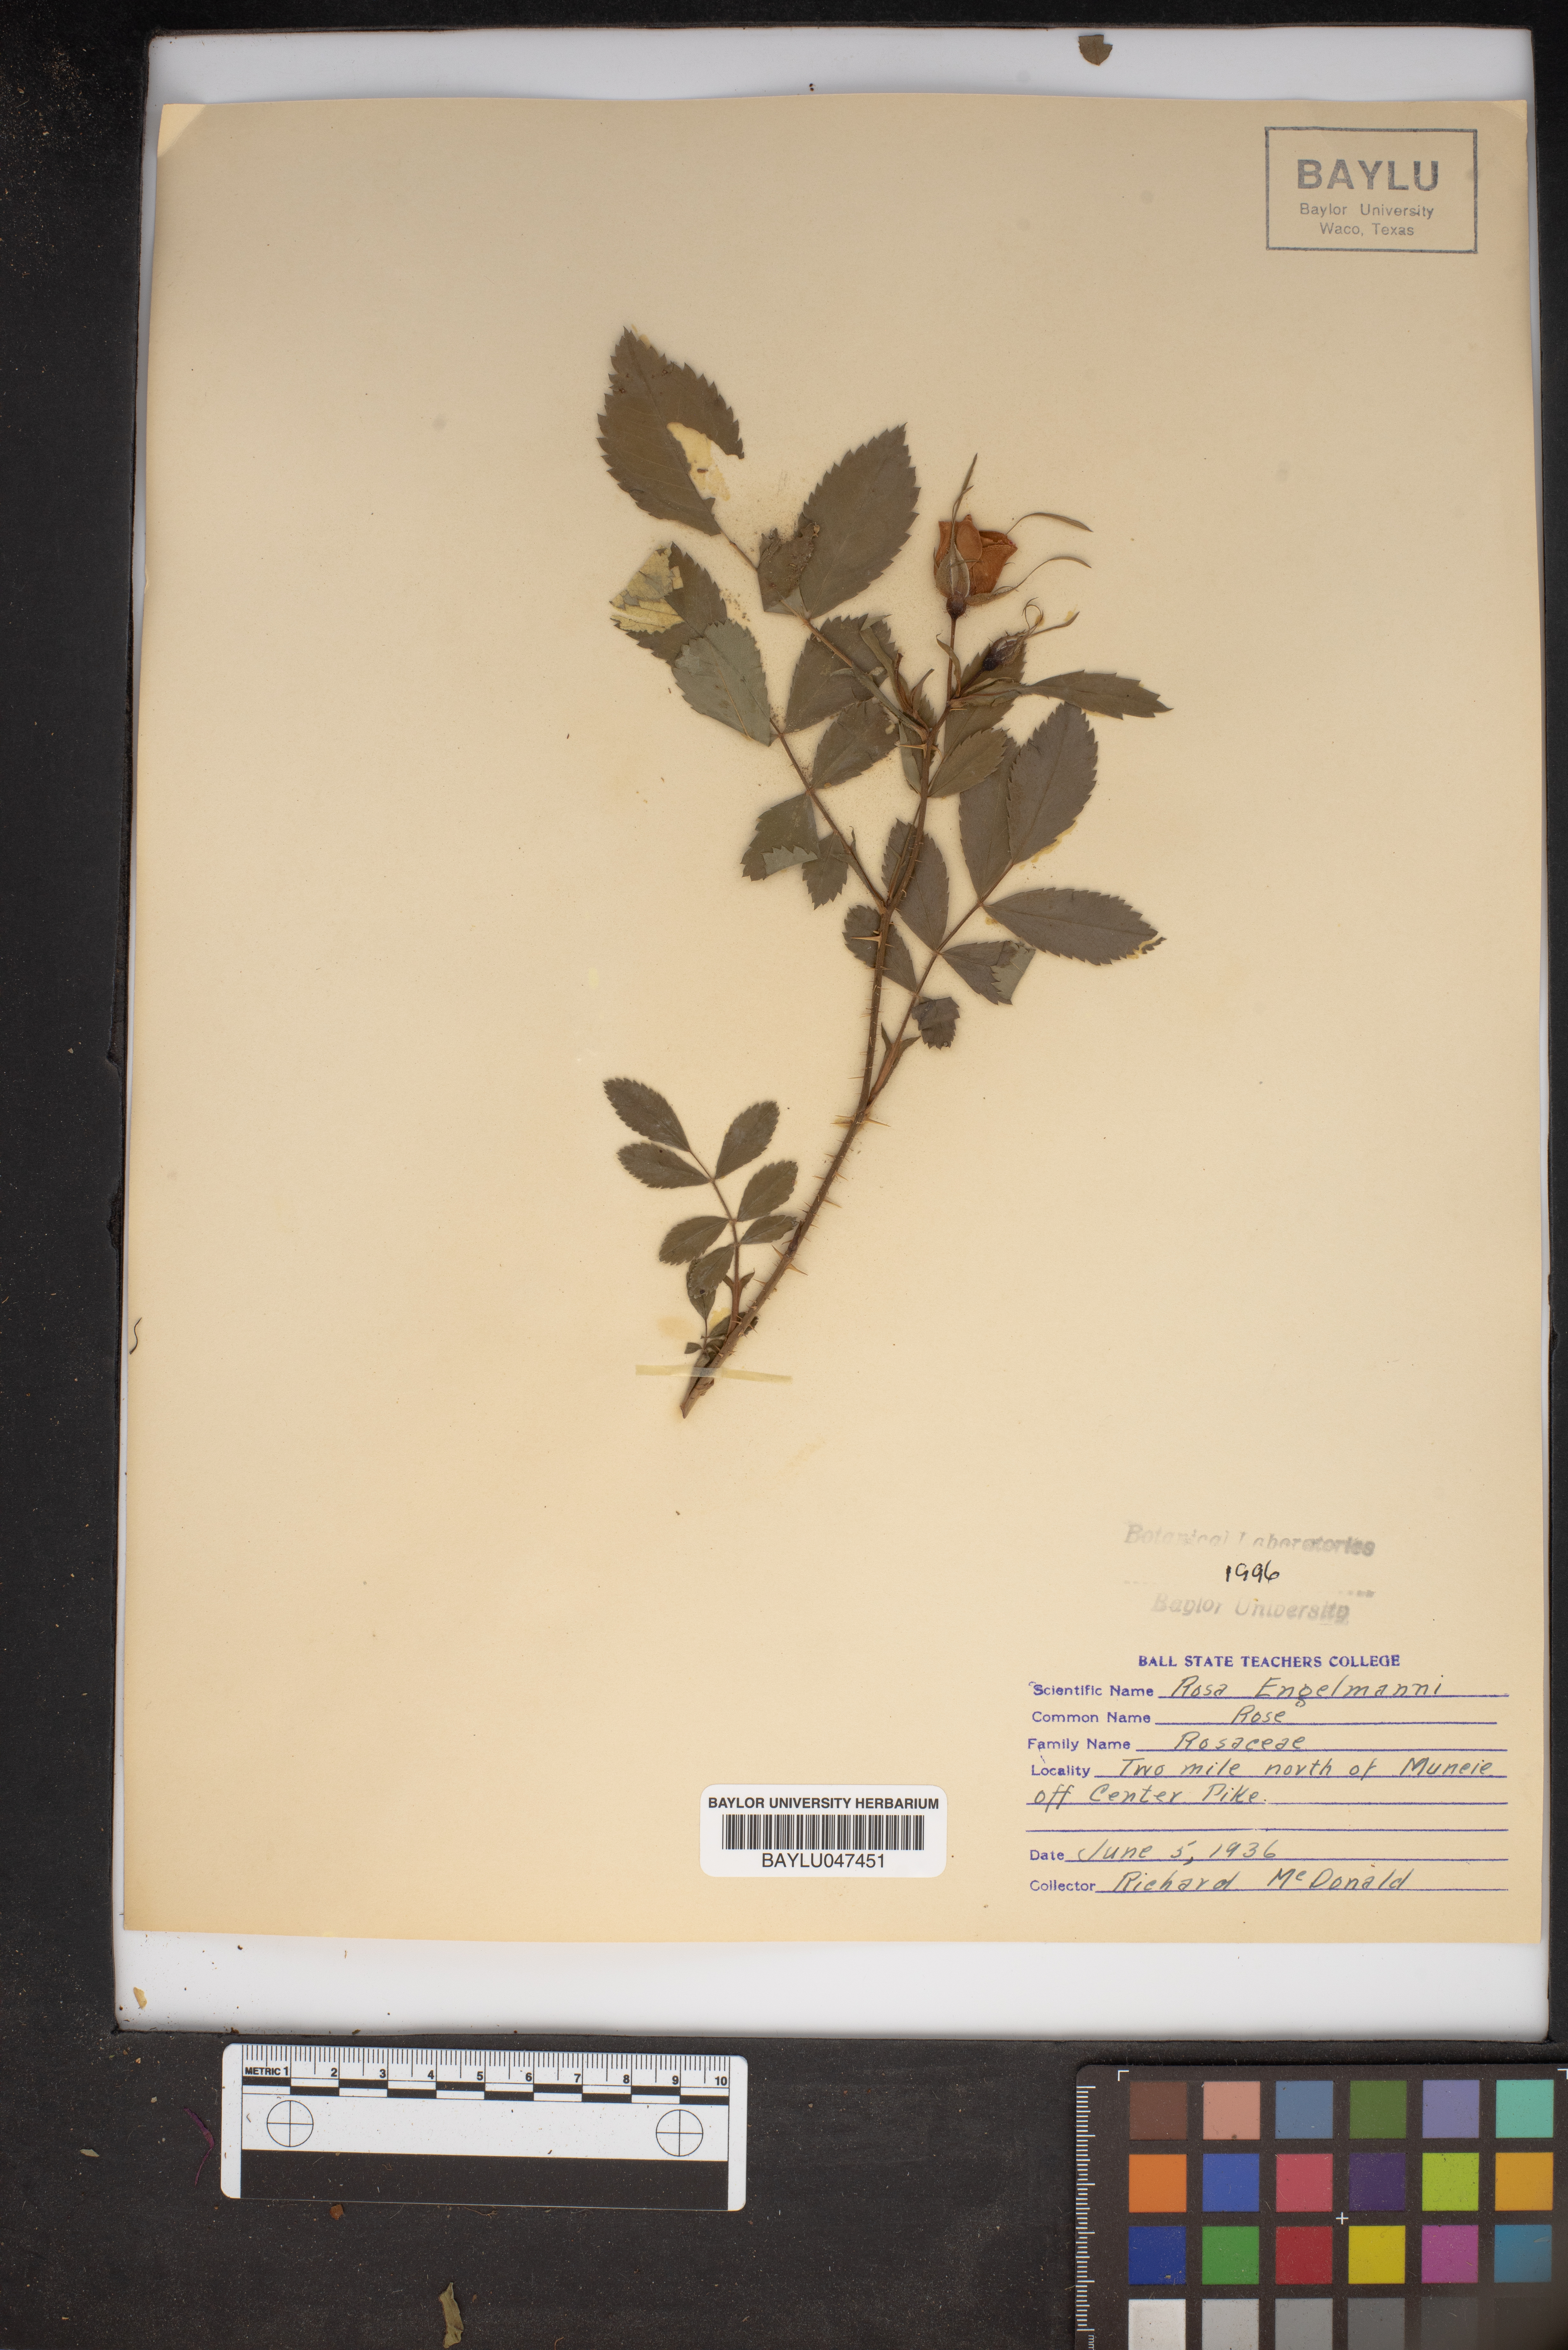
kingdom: Plantae
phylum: Tracheophyta
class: Magnoliopsida
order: Rosales
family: Rosaceae
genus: Rosa
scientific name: Rosa engelmannii
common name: Engelmann's rose
